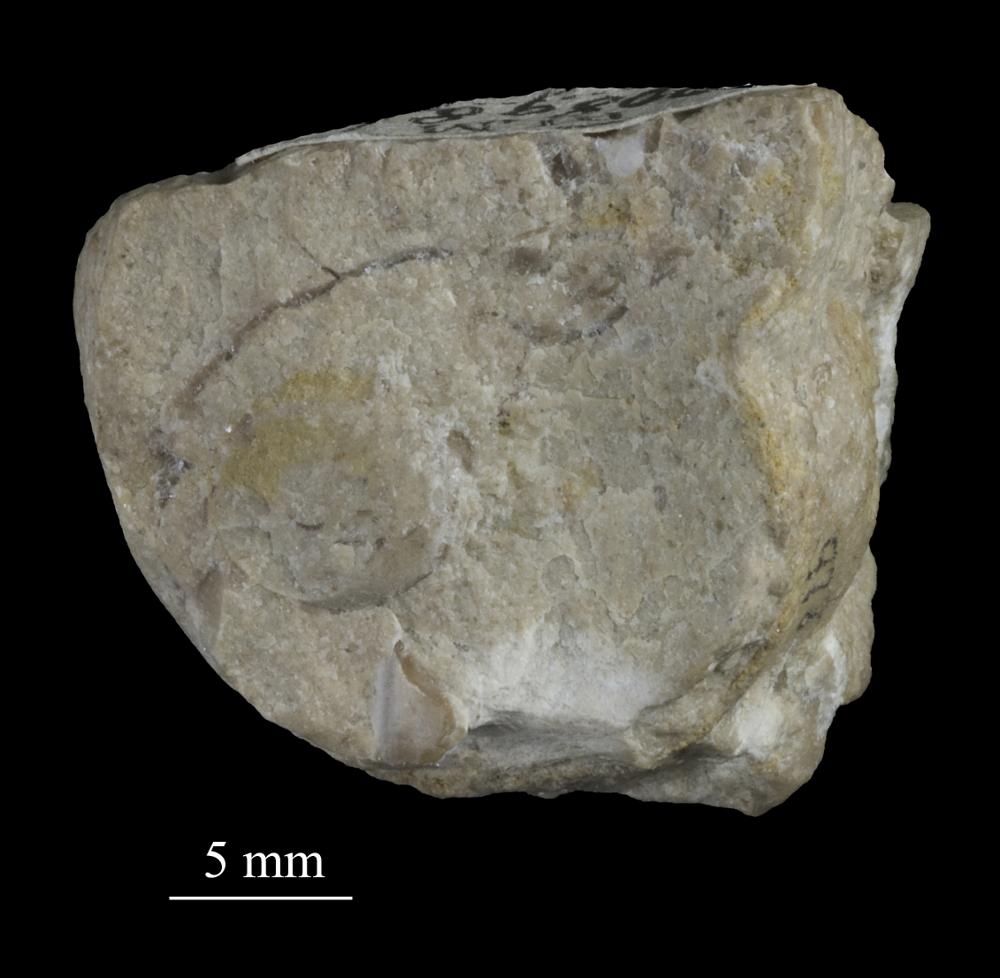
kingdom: Animalia
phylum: Mollusca
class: Gastropoda
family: Bucaniidae
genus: Tetranota
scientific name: Tetranota Bucaniella lineata
